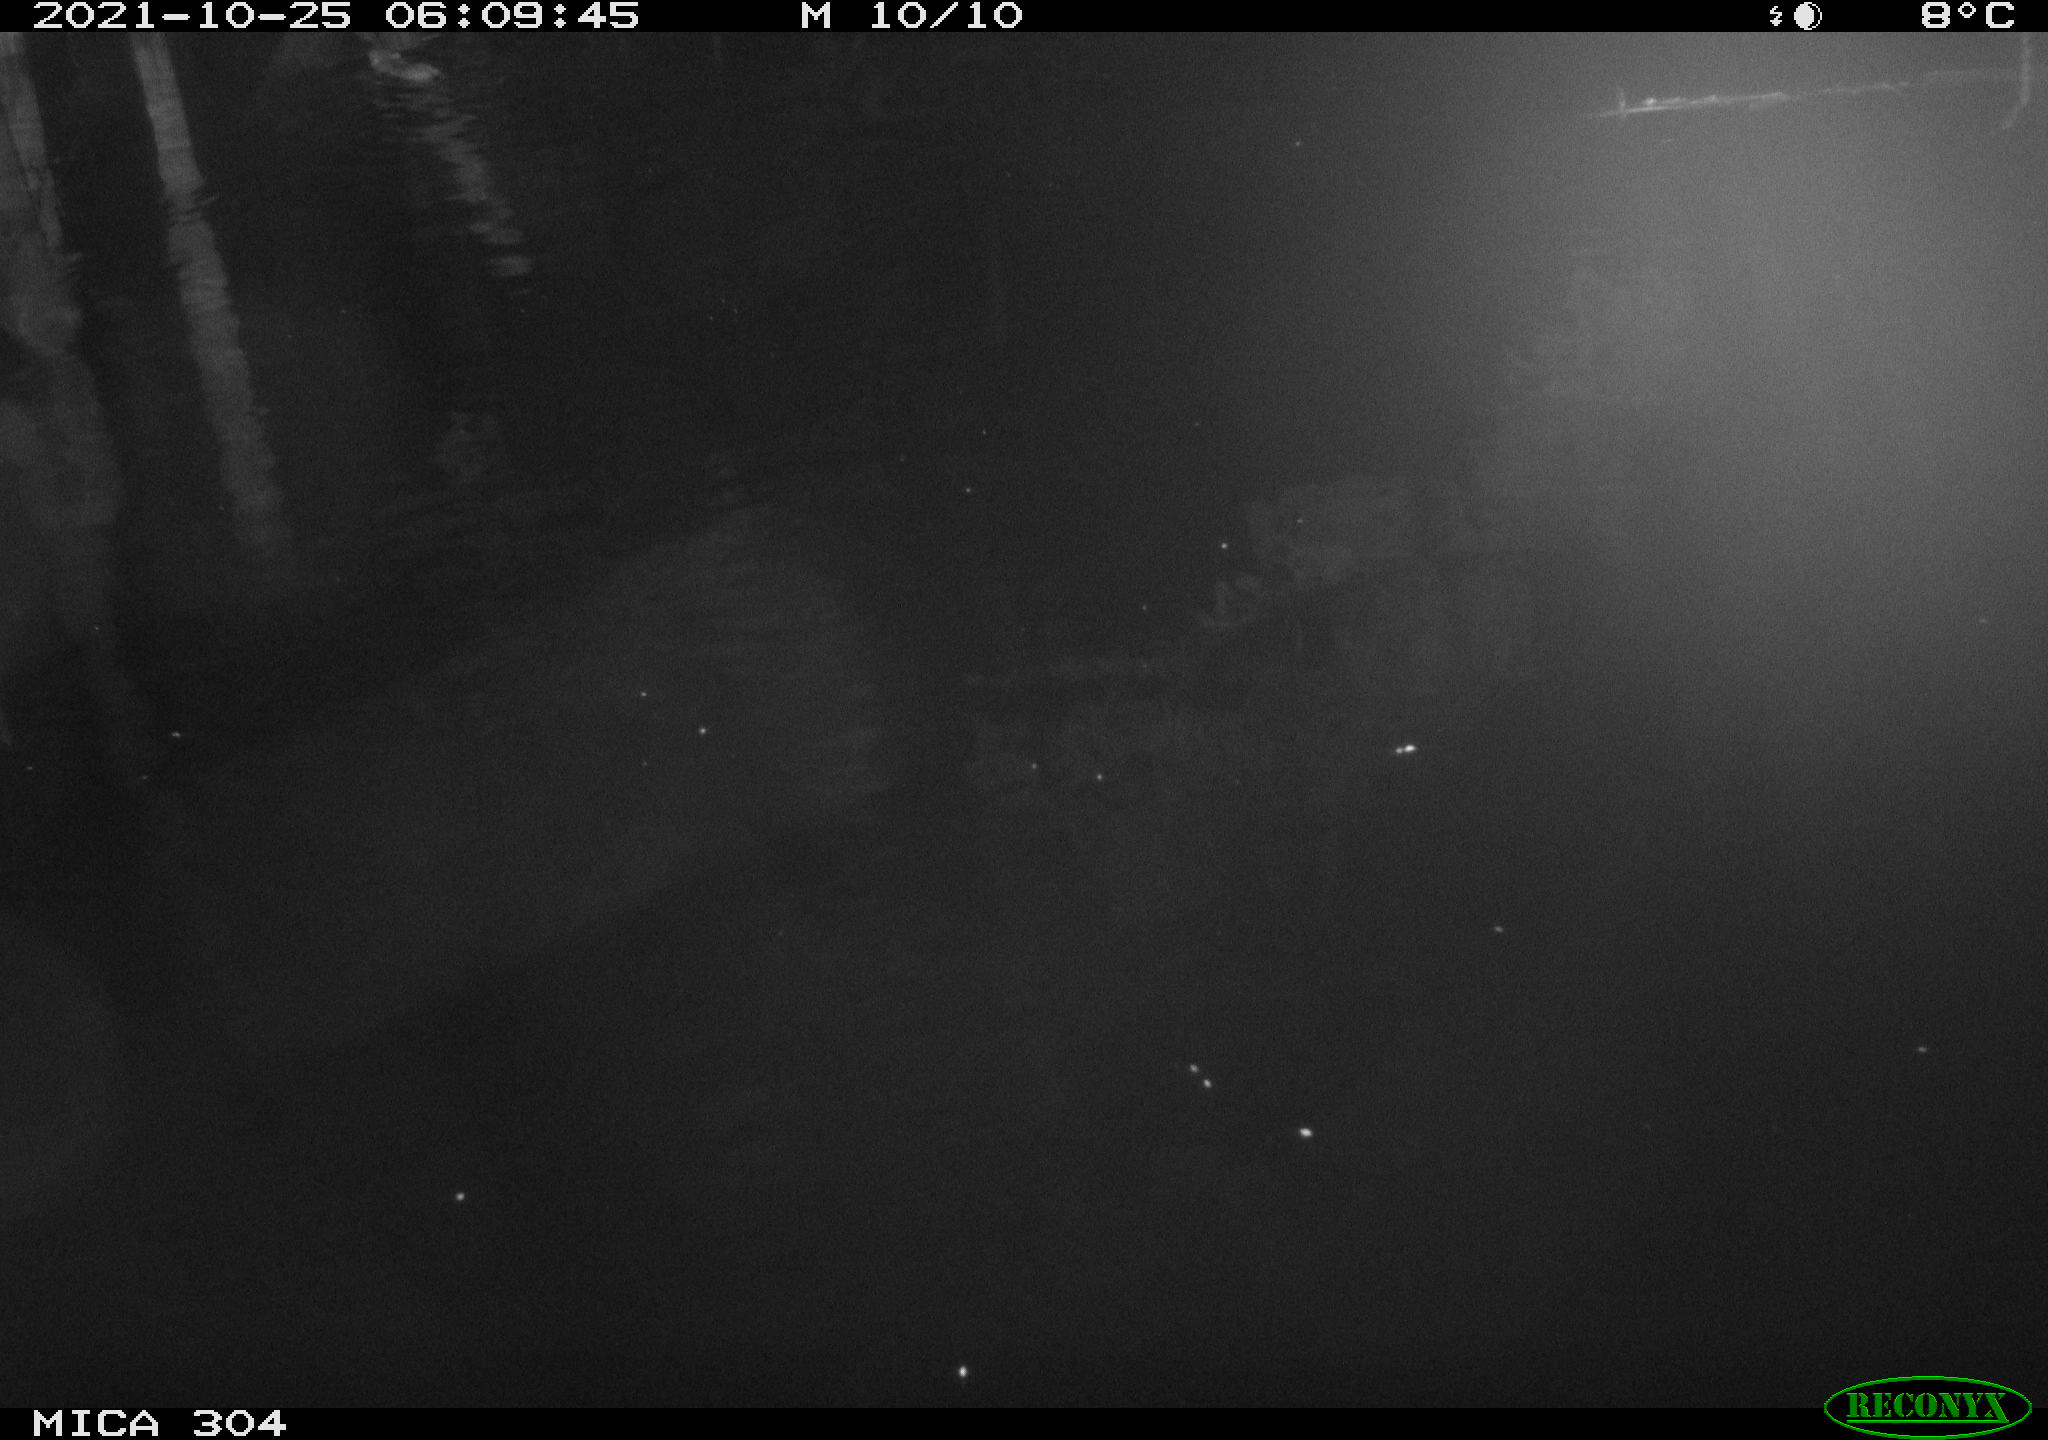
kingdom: Animalia
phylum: Chordata
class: Mammalia
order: Rodentia
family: Cricetidae
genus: Ondatra
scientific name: Ondatra zibethicus
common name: Muskrat
